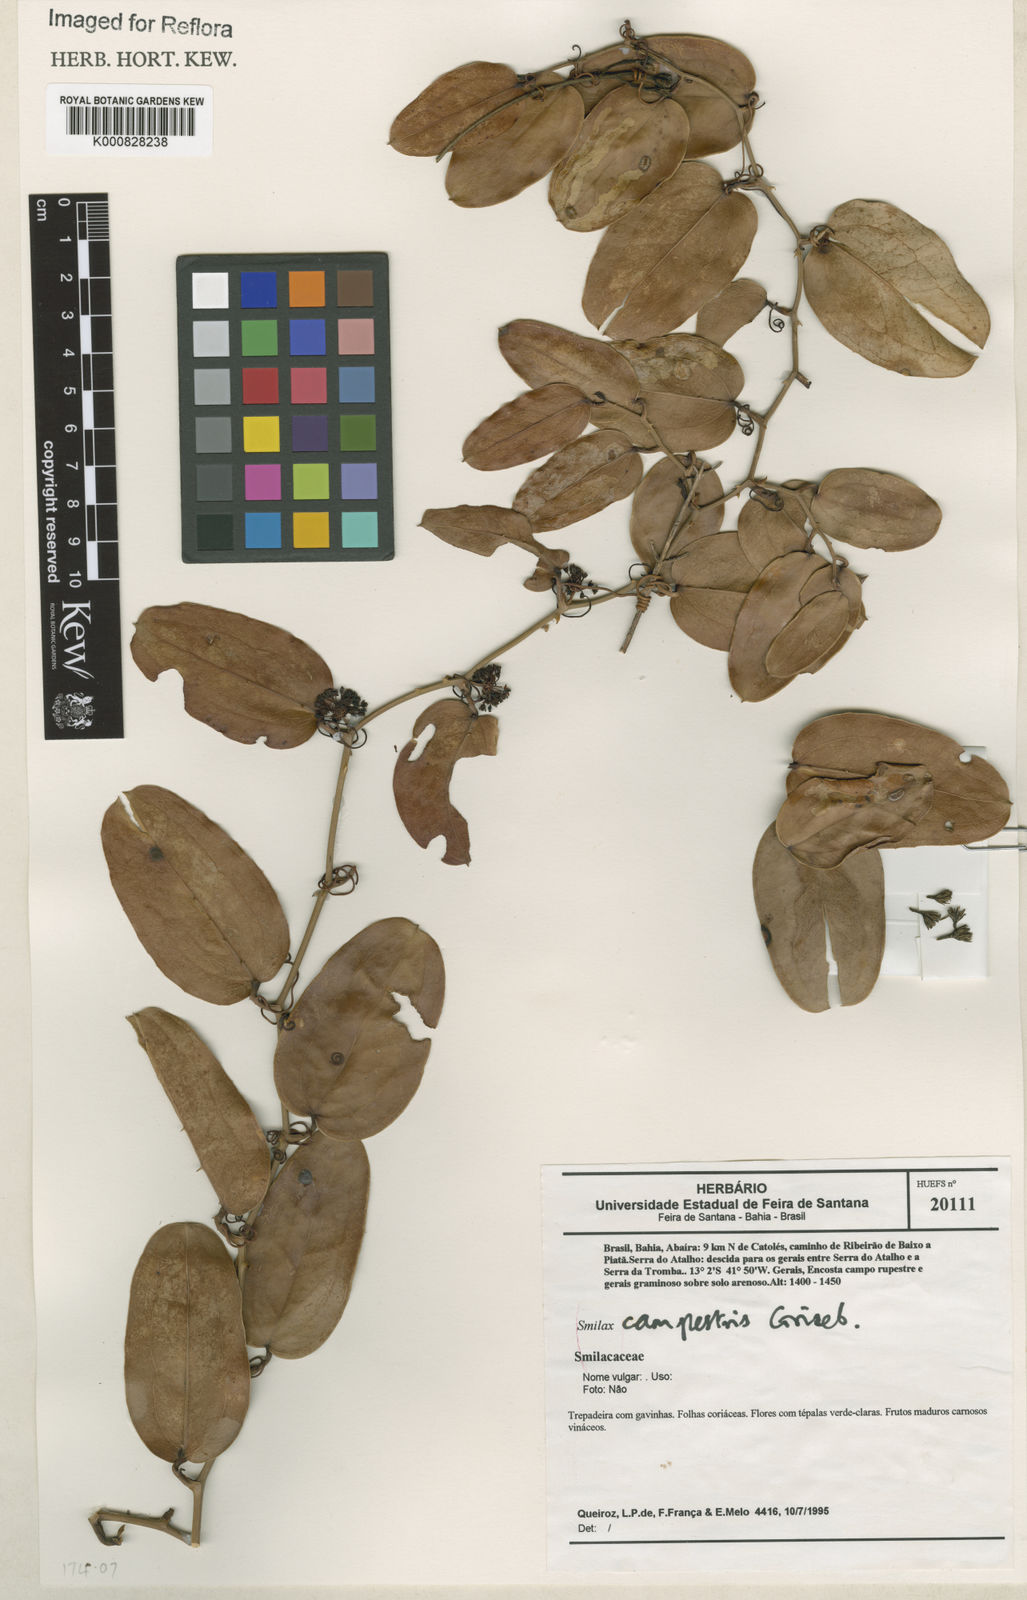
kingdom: Plantae
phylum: Tracheophyta
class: Liliopsida
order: Liliales
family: Smilacaceae
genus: Smilax
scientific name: Smilax campestris
